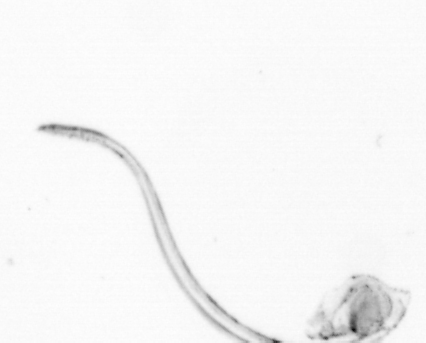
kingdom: Animalia
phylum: Chordata
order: Copelata
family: Fritillariidae
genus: Appendicularia
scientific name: Appendicularia
